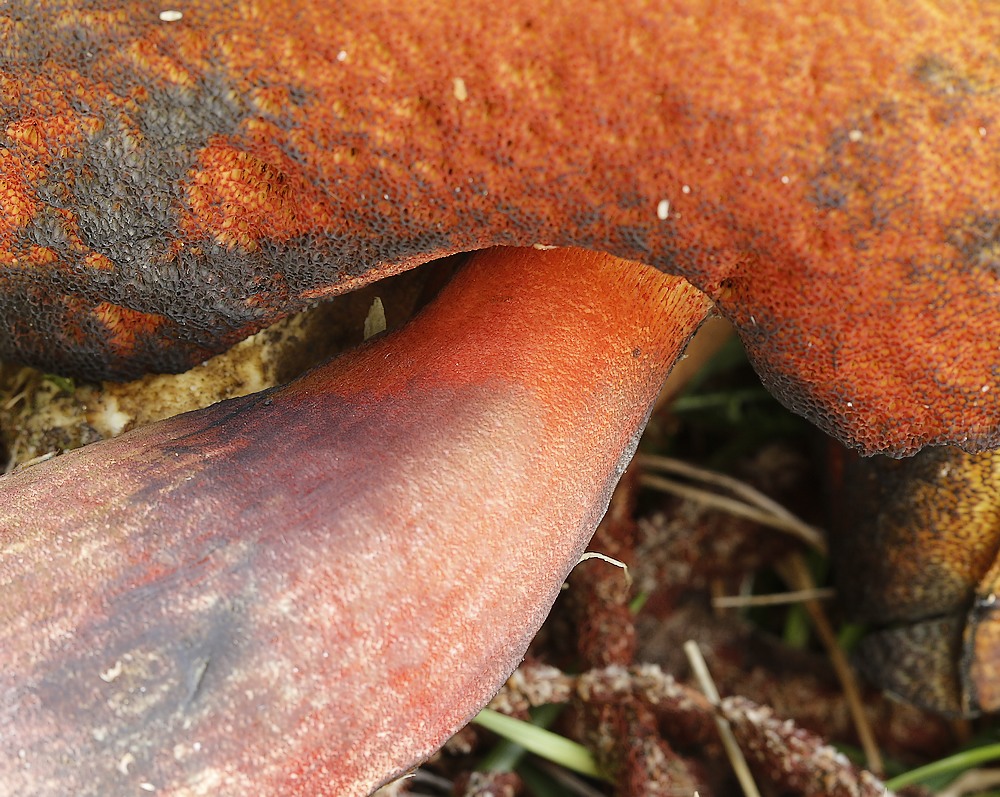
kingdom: Fungi
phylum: Basidiomycota
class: Agaricomycetes
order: Boletales
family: Boletaceae
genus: Neoboletus
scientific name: Neoboletus erythropus
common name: punktstokket indigorørhat
